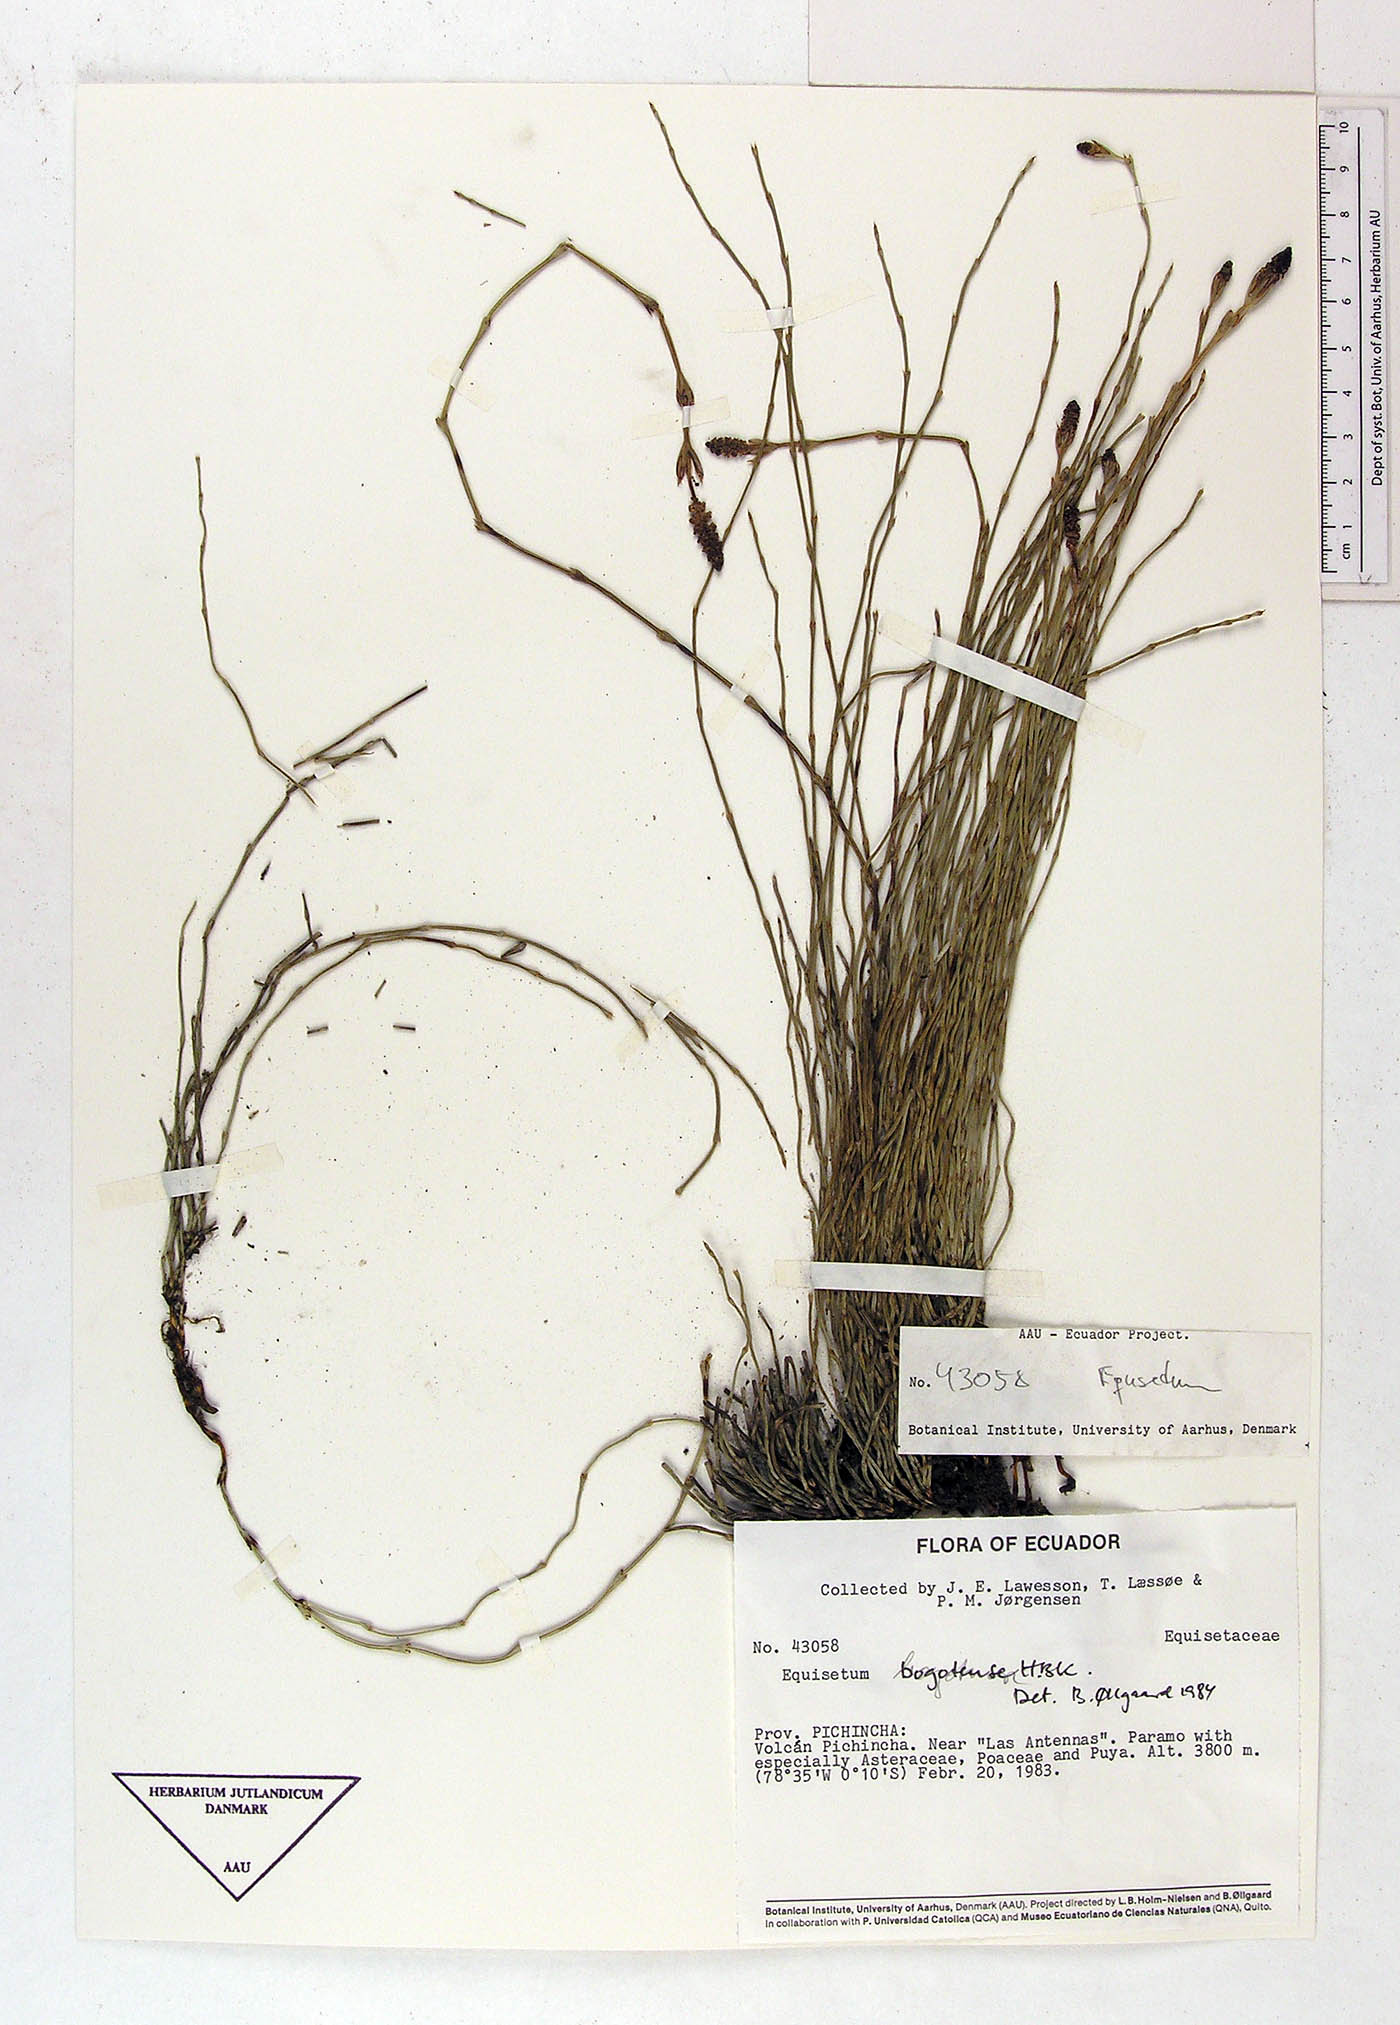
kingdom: Plantae
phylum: Tracheophyta
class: Polypodiopsida
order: Equisetales
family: Equisetaceae
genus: Equisetum
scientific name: Equisetum bogotense
